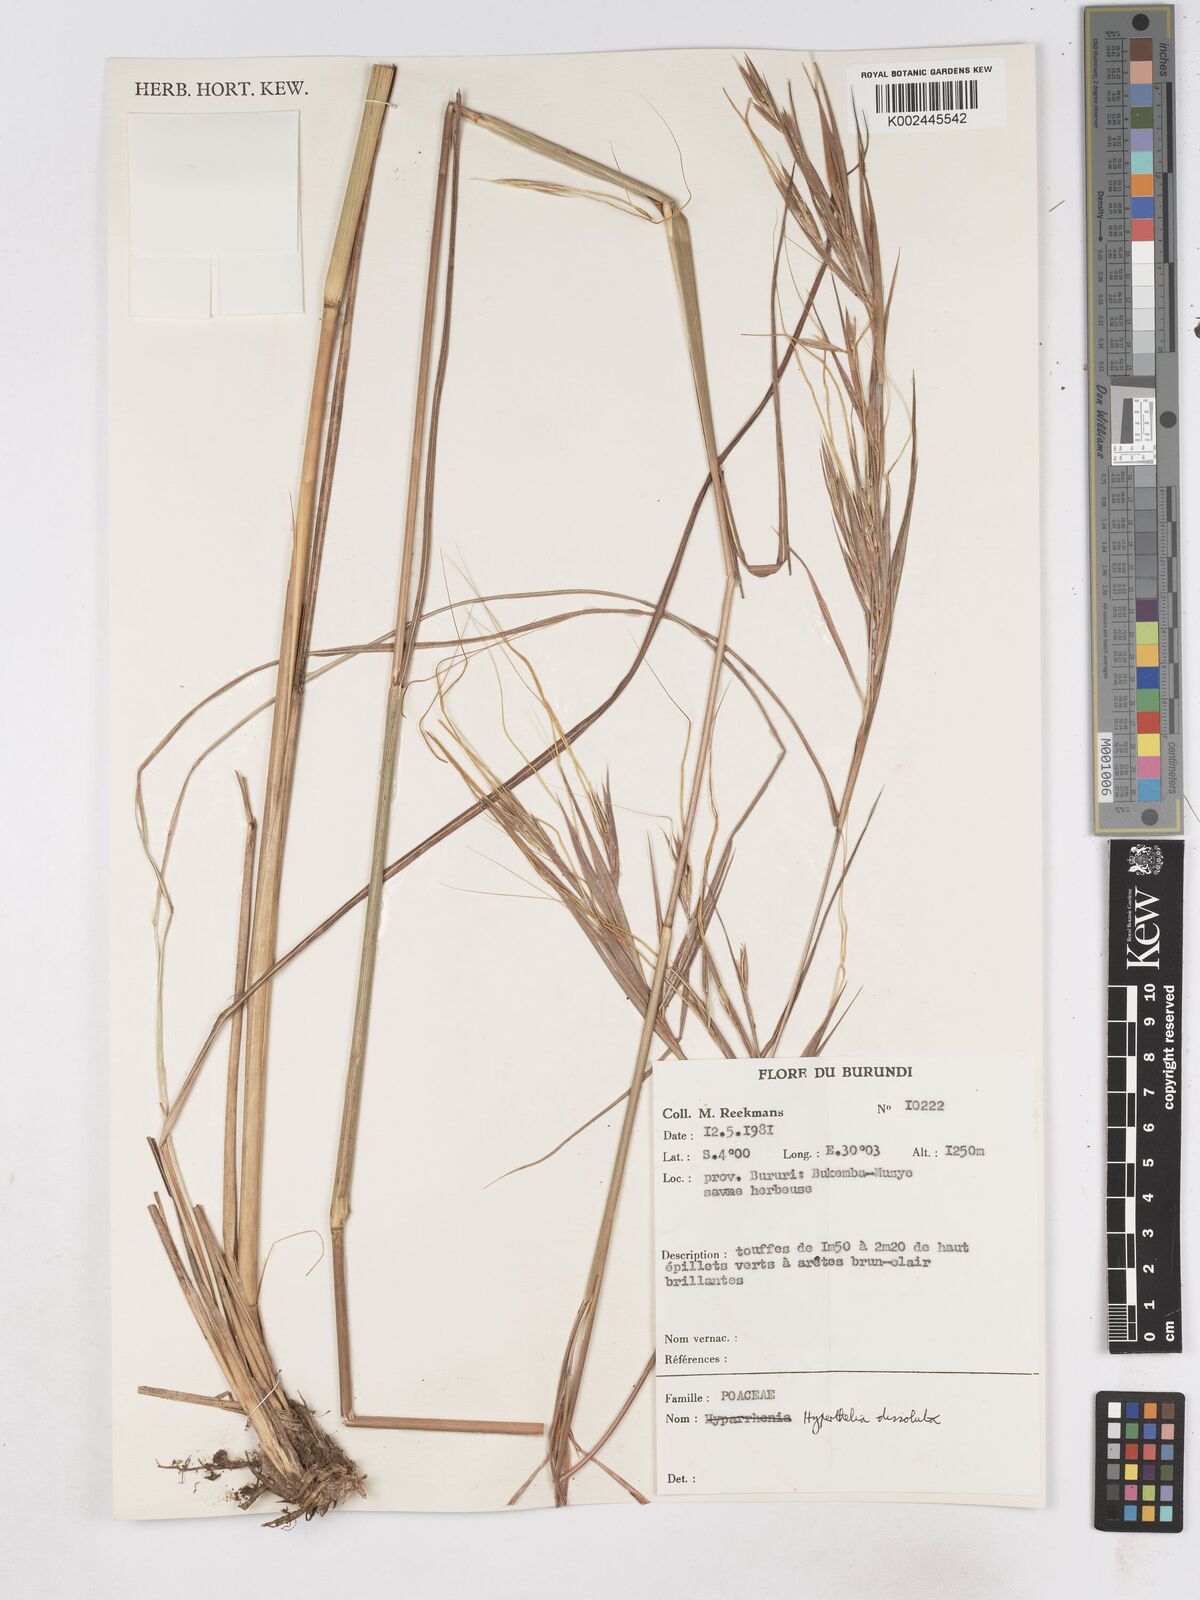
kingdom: Plantae
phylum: Tracheophyta
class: Liliopsida
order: Poales
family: Poaceae
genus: Hyperthelia
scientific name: Hyperthelia dissoluta
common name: Yellow thatching grass
